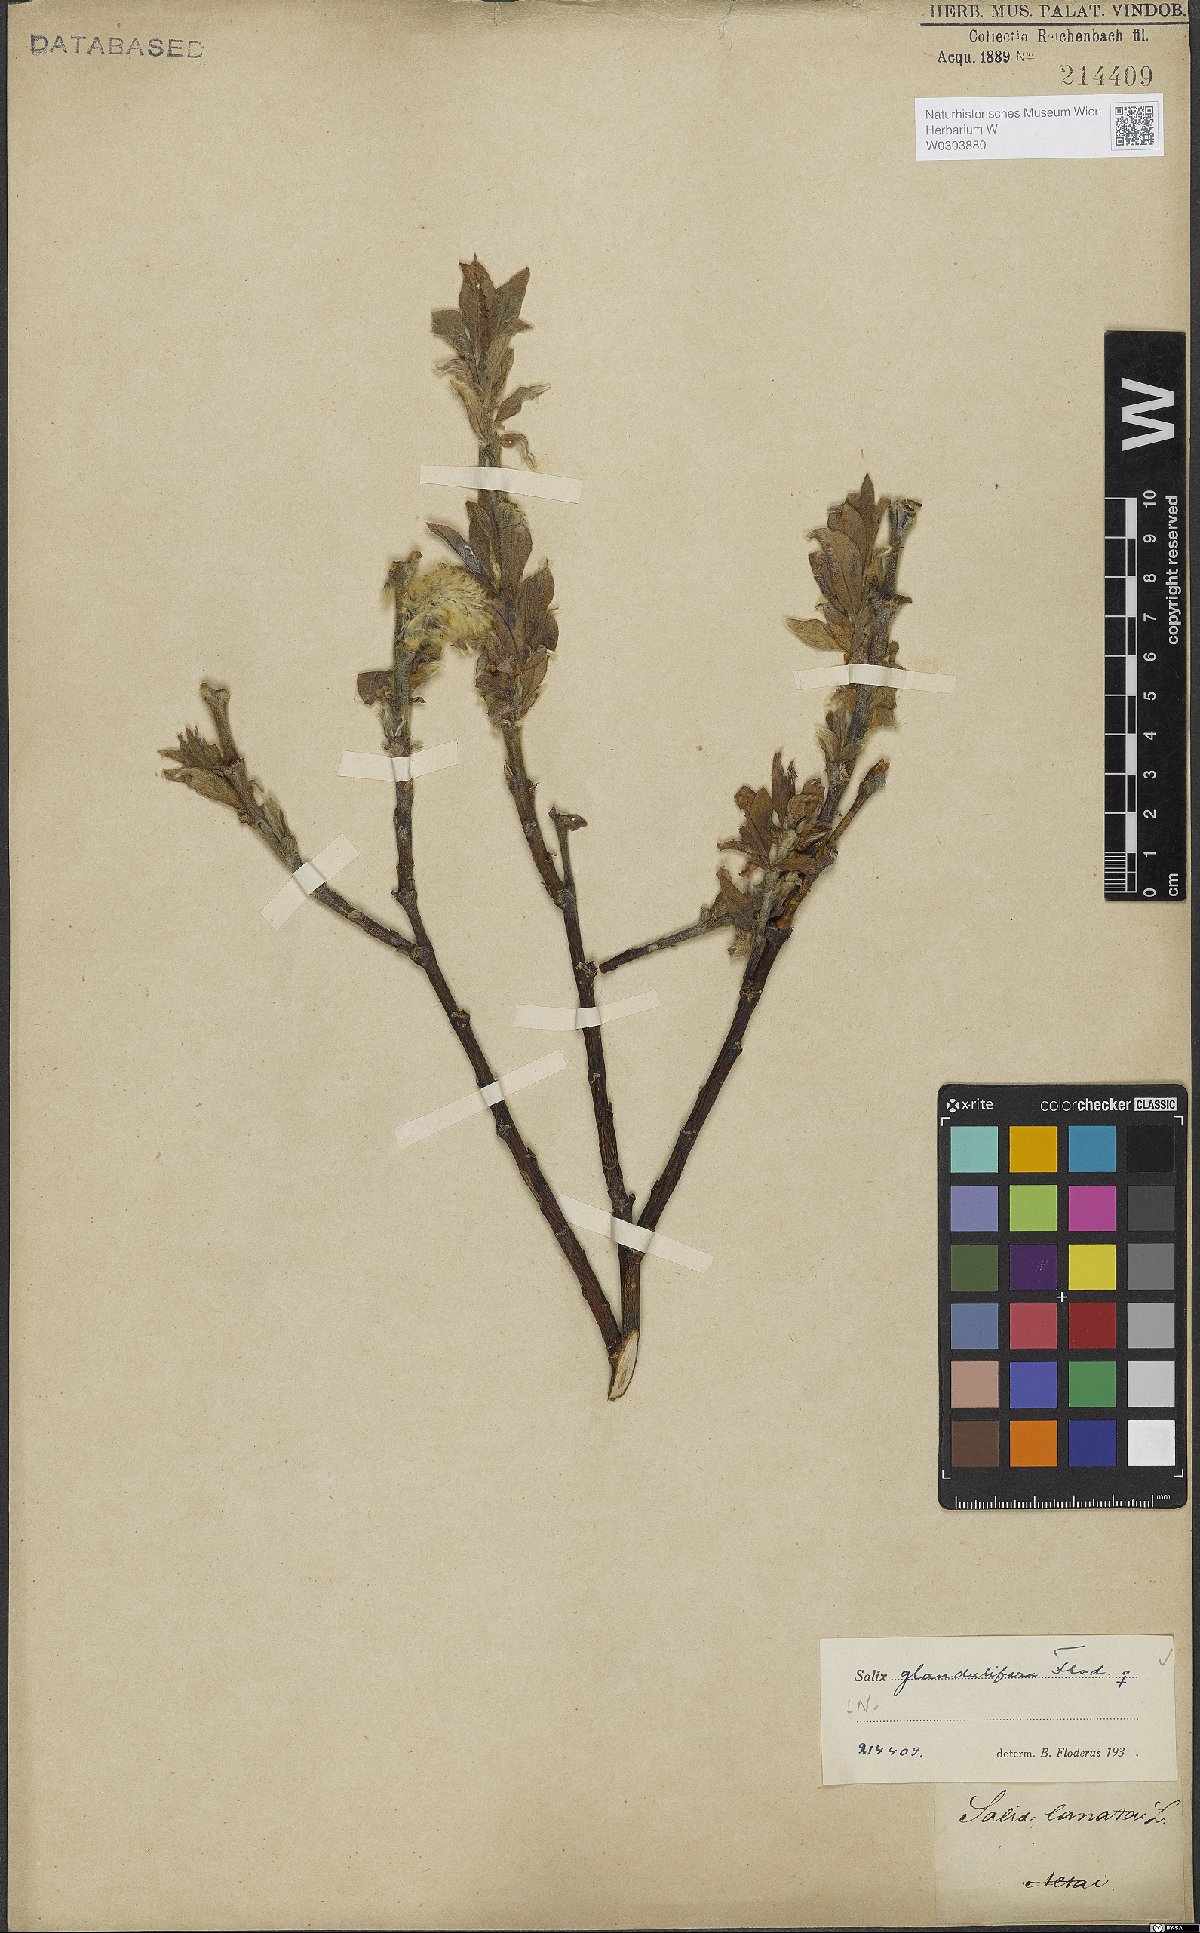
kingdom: Plantae
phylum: Tracheophyta
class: Magnoliopsida
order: Malpighiales
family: Salicaceae
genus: Salix
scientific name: Salix lanata
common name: Woolly willow
